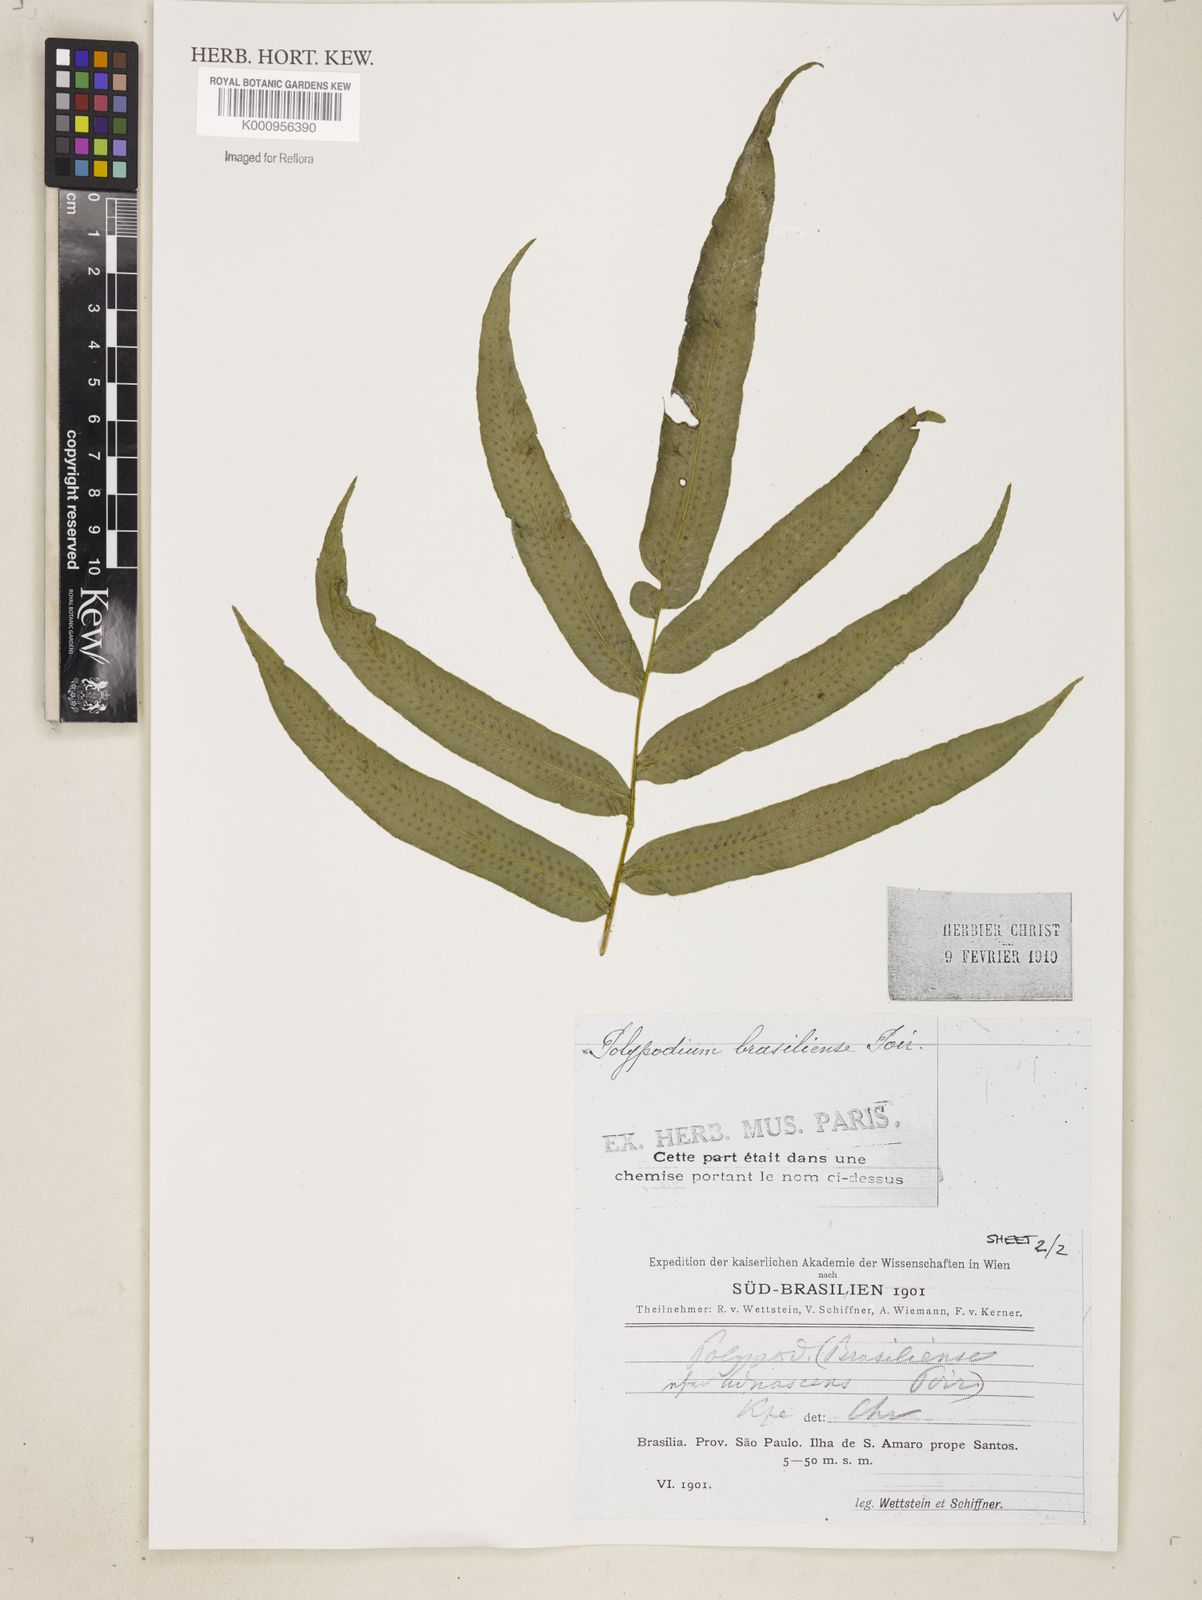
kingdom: Plantae
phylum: Tracheophyta
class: Polypodiopsida
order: Polypodiales
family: Polypodiaceae
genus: Serpocaulon
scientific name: Serpocaulon triseriale
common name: Angle-vein fern
